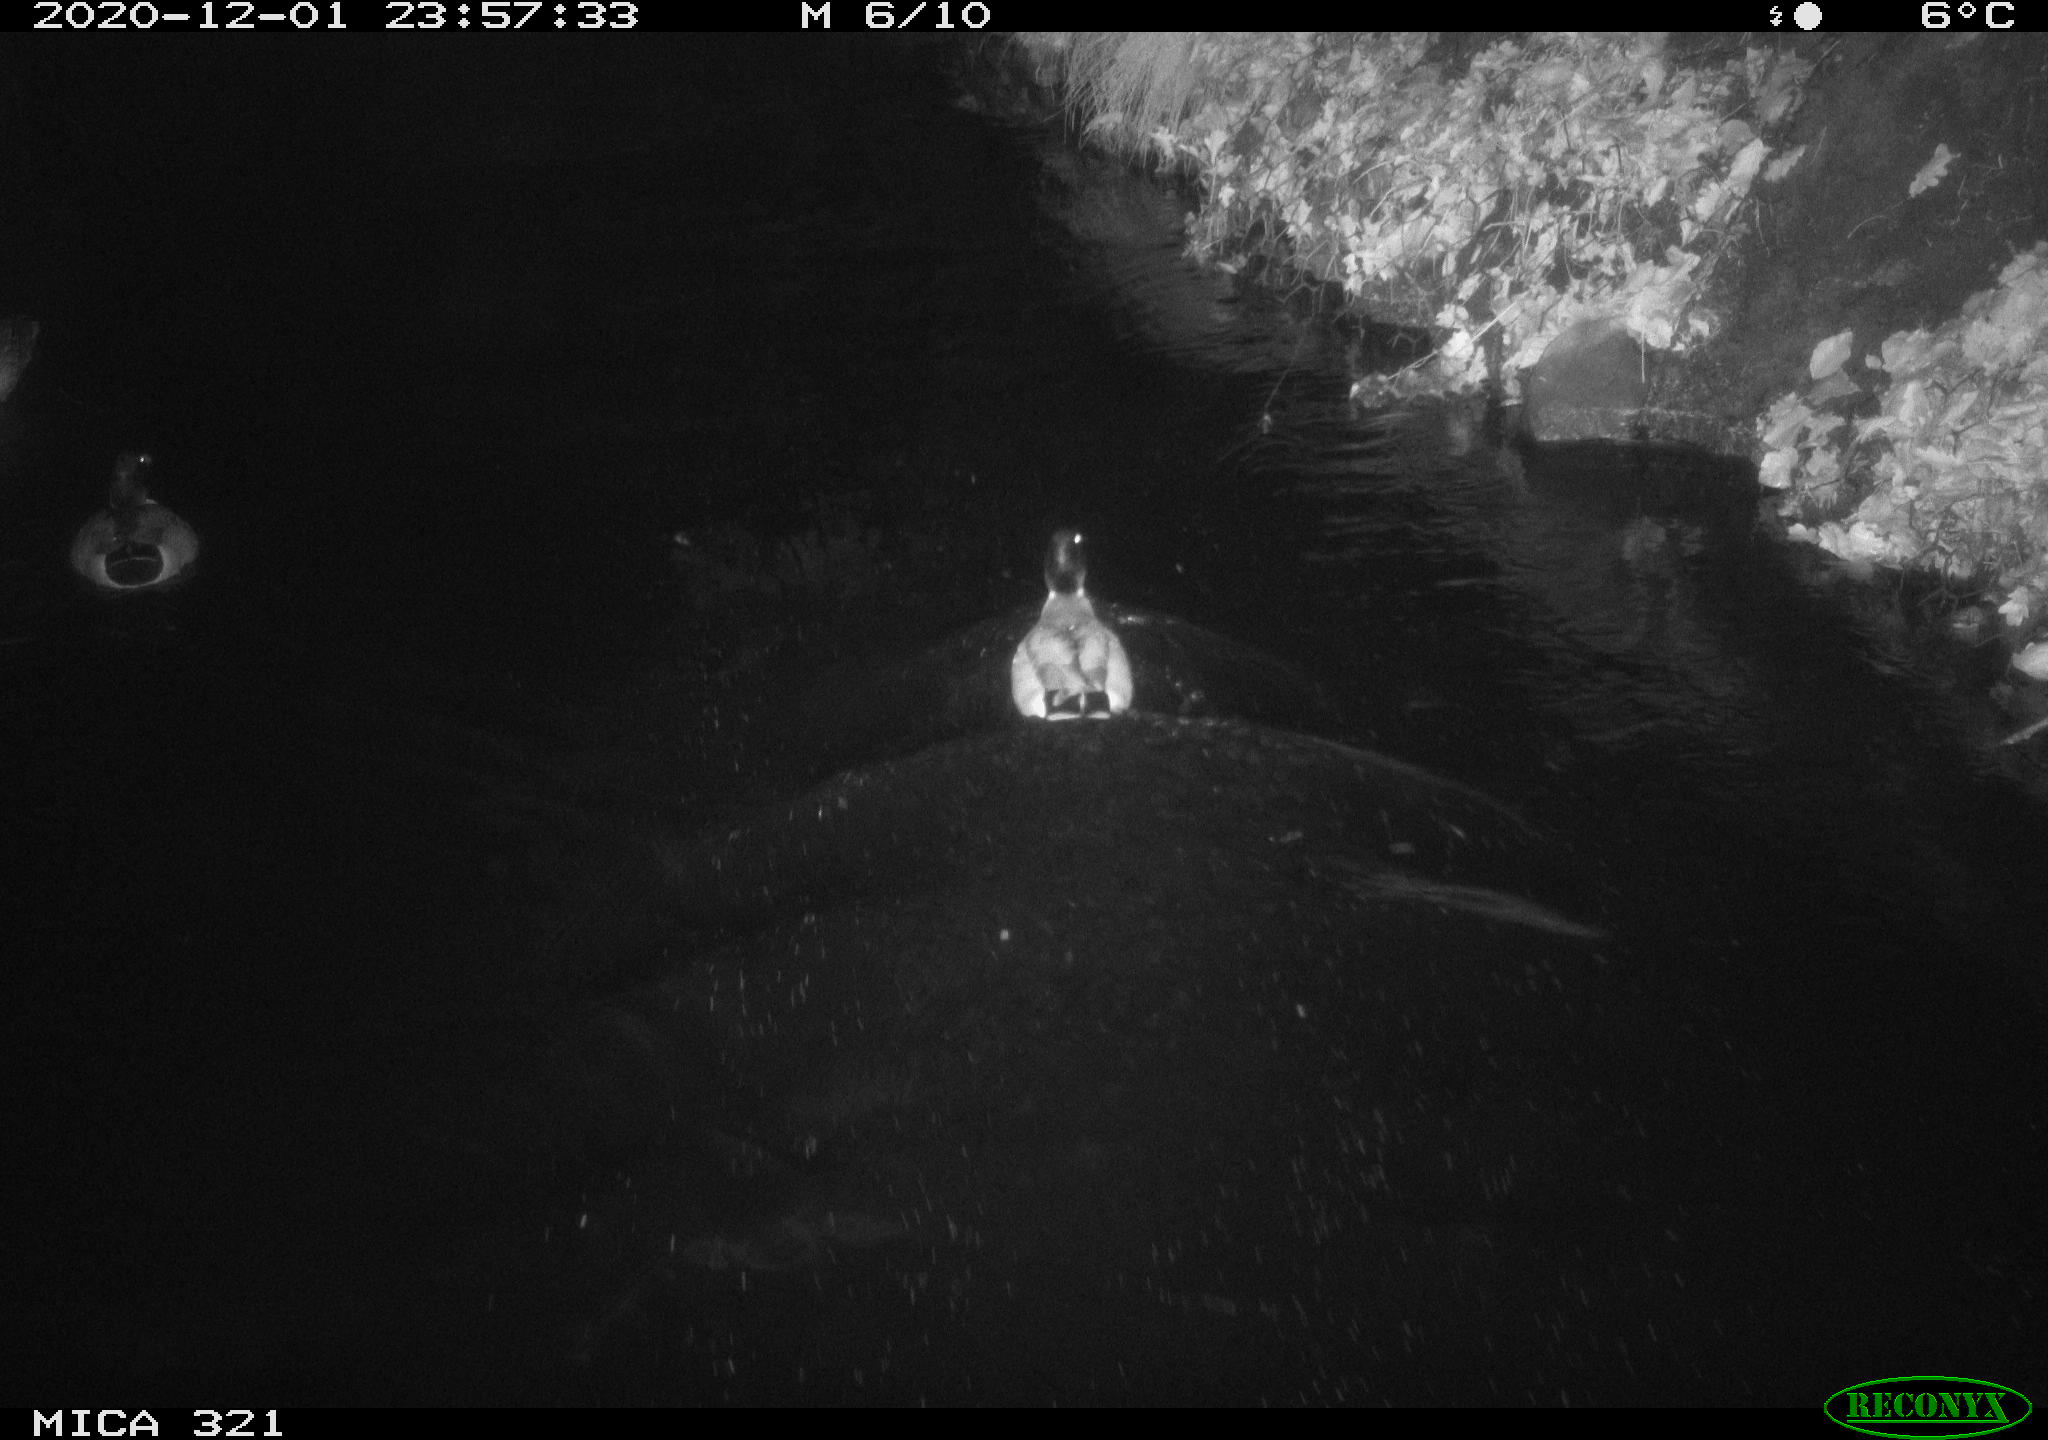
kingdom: Animalia
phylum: Chordata
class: Aves
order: Anseriformes
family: Anatidae
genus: Anas
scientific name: Anas platyrhynchos
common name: Mallard
